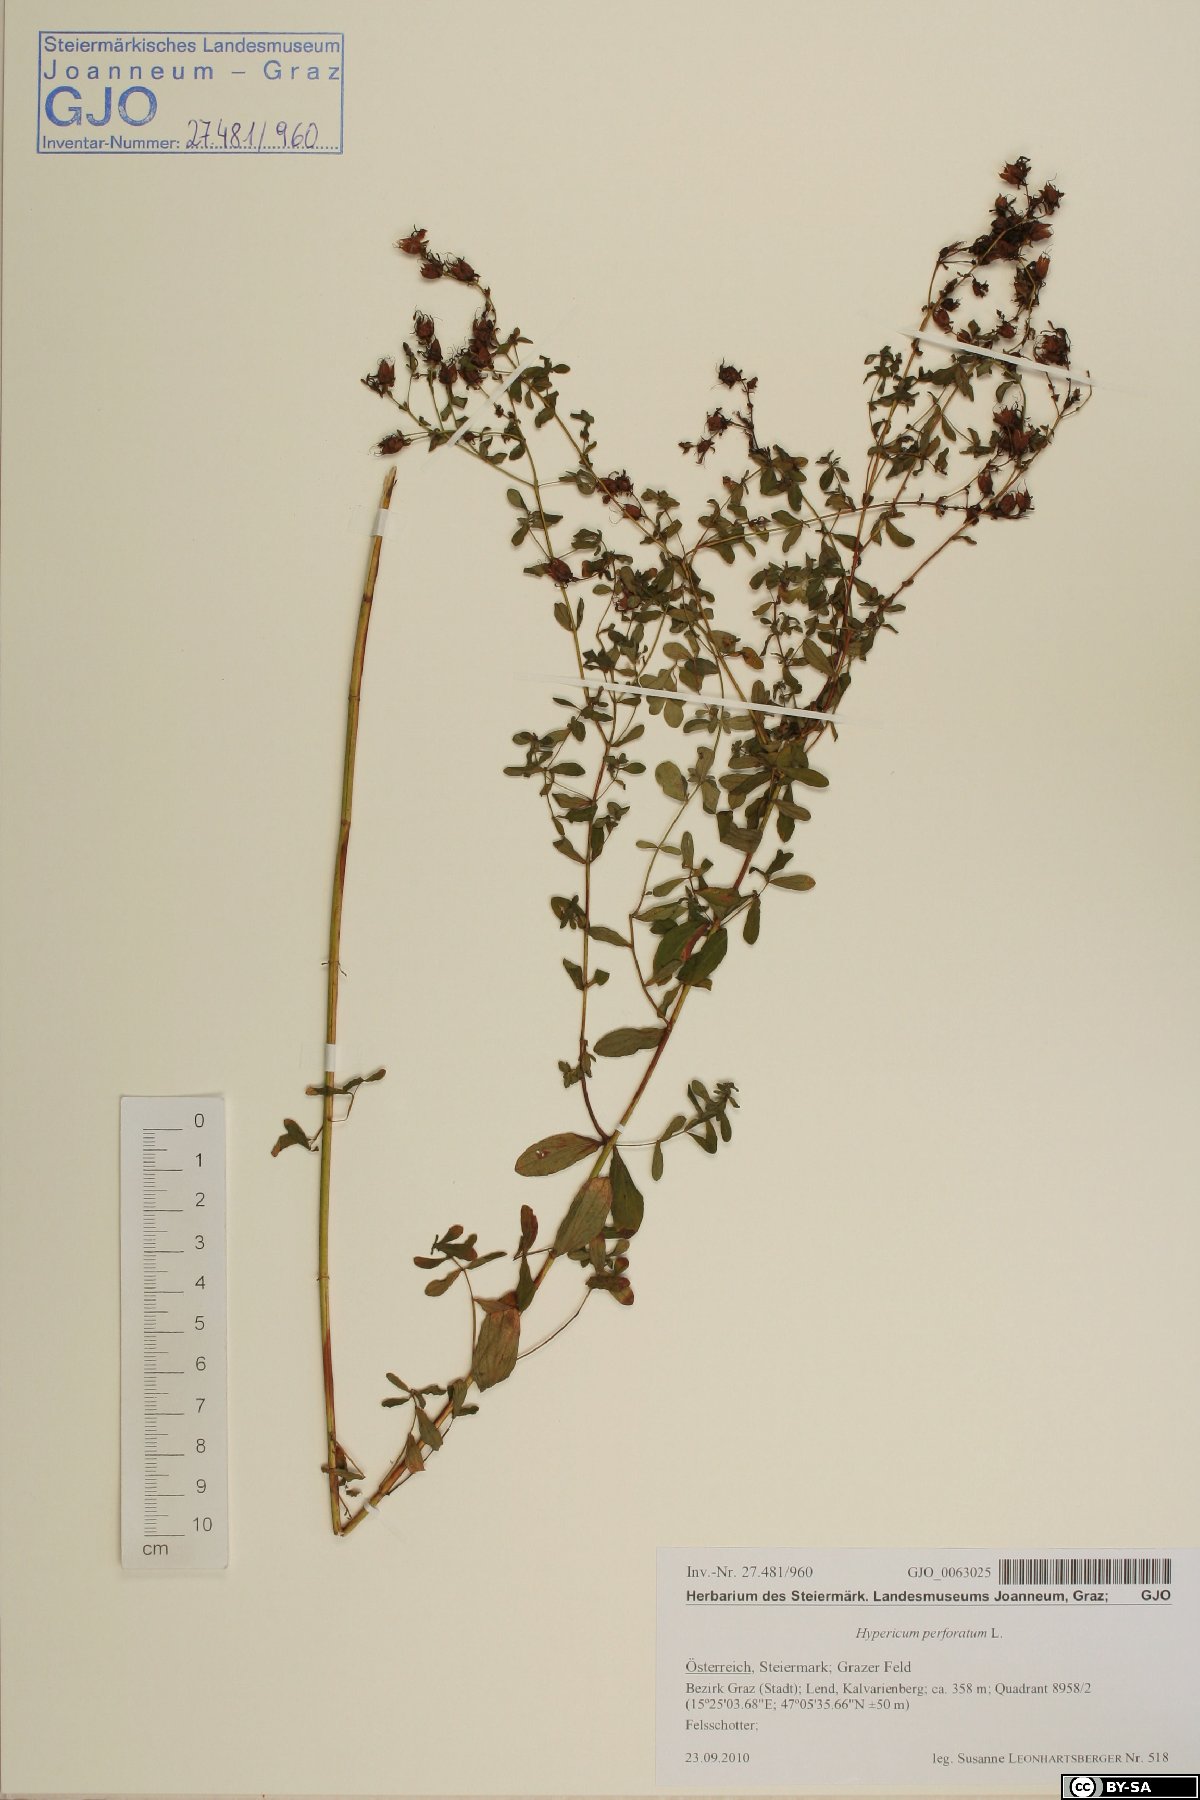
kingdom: Plantae
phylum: Tracheophyta
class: Magnoliopsida
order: Malpighiales
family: Hypericaceae
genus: Hypericum
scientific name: Hypericum perforatum
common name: Common st. johnswort
